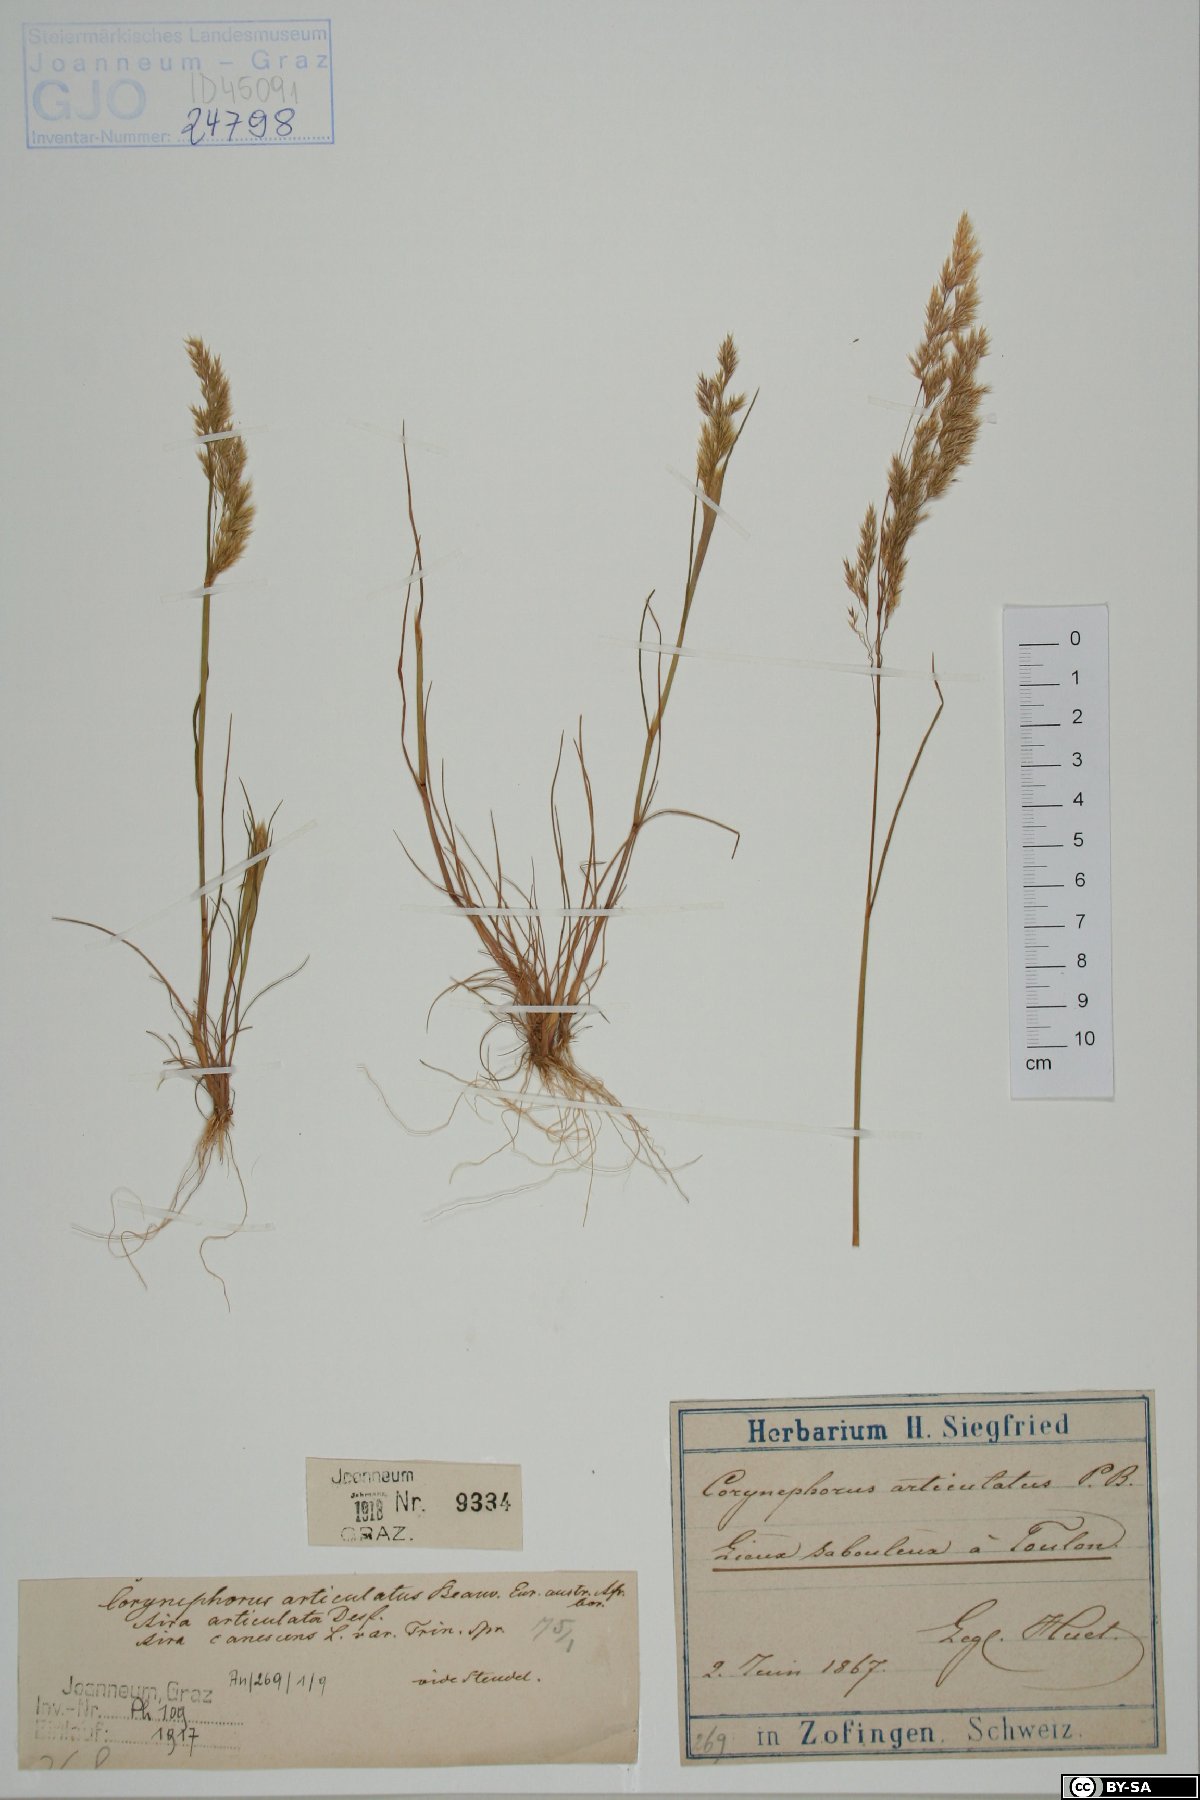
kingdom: Plantae
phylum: Tracheophyta
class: Liliopsida
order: Poales
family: Poaceae
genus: Corynephorus
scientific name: Corynephorus articulatus
